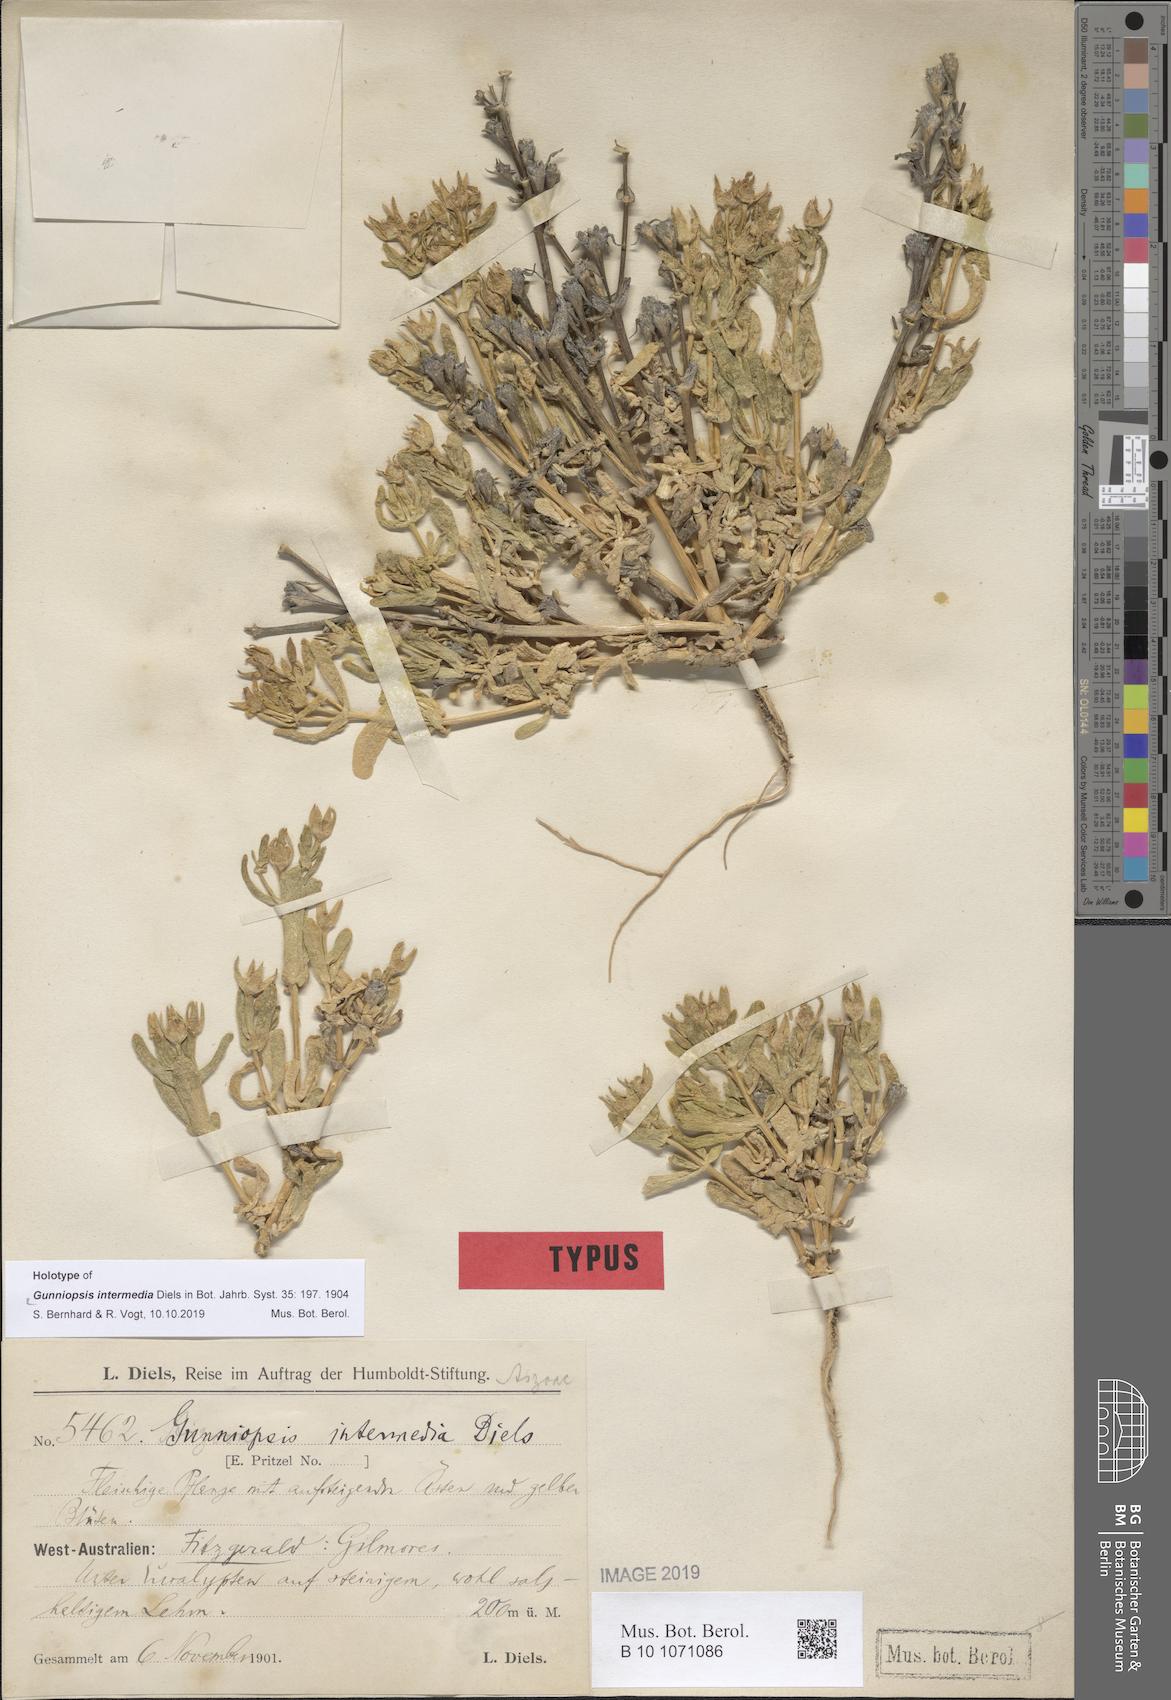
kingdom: Plantae
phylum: Tracheophyta
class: Magnoliopsida
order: Caryophyllales
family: Aizoaceae
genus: Gunniopsis
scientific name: Gunniopsis intermedia
